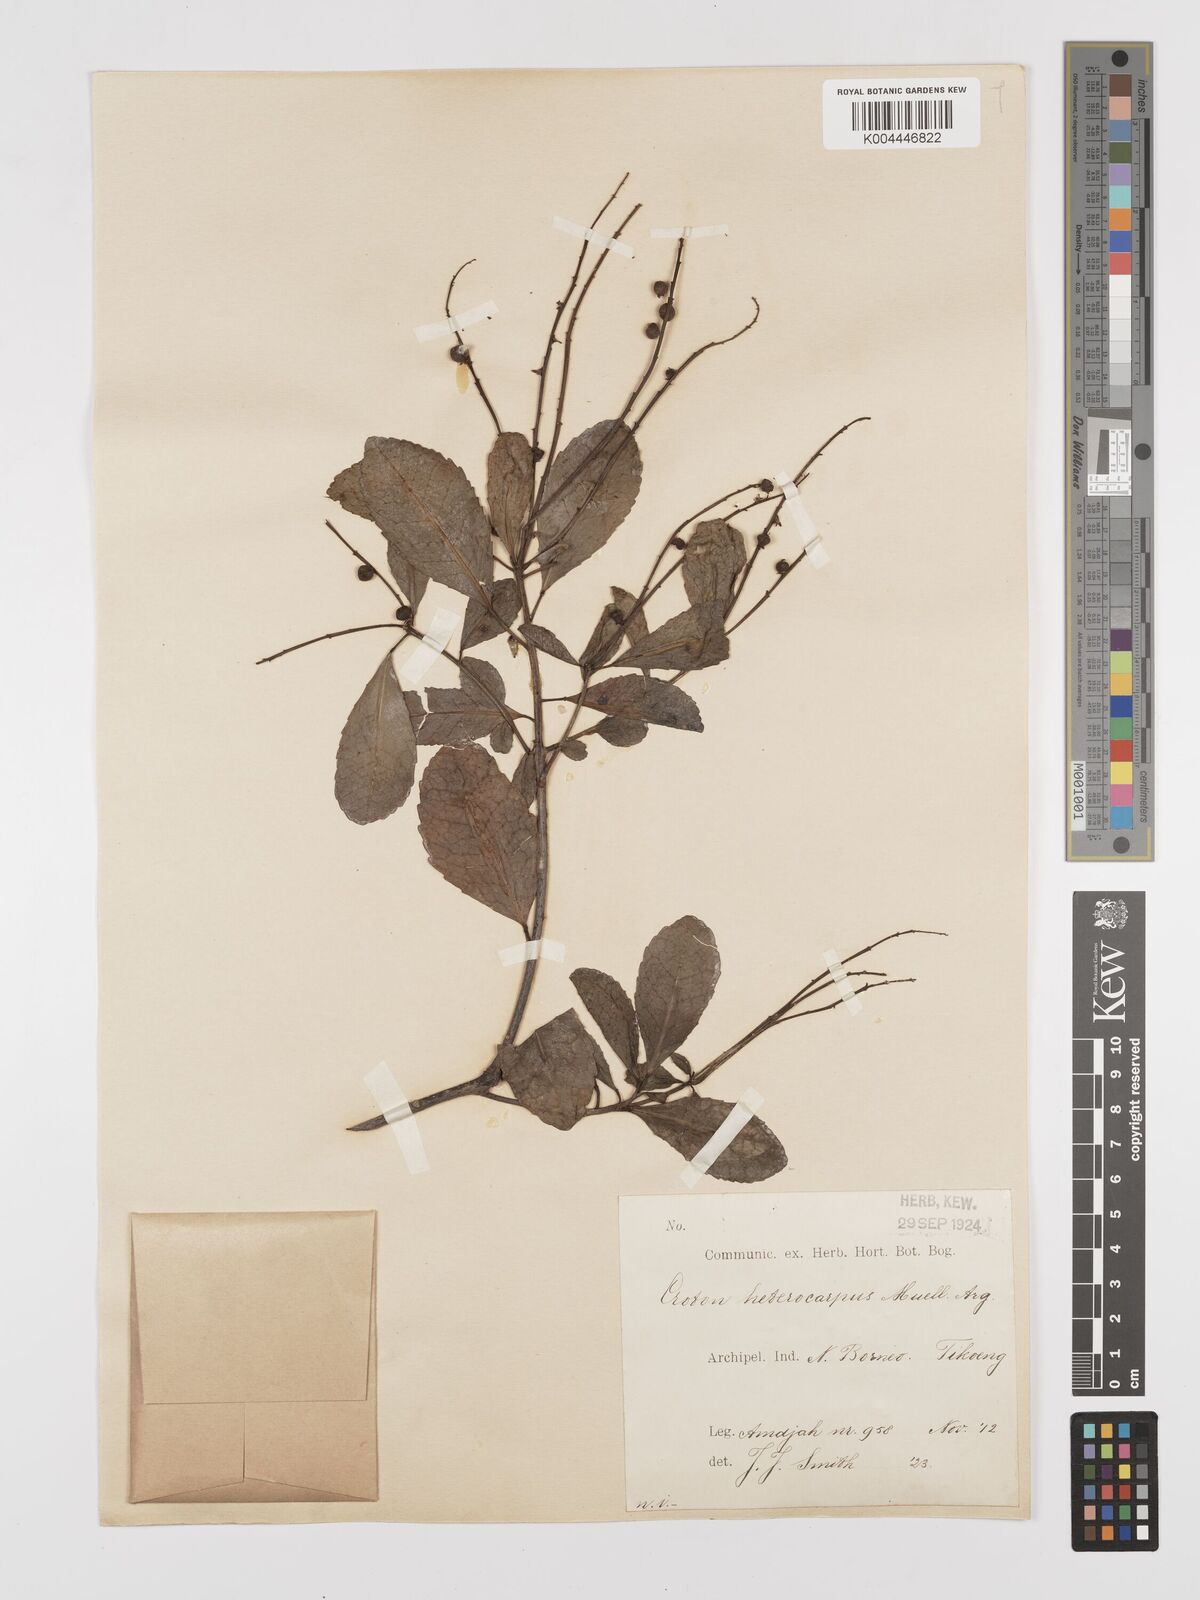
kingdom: Plantae
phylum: Tracheophyta
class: Magnoliopsida
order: Malpighiales
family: Euphorbiaceae
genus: Croton
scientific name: Croton heterocarpus
